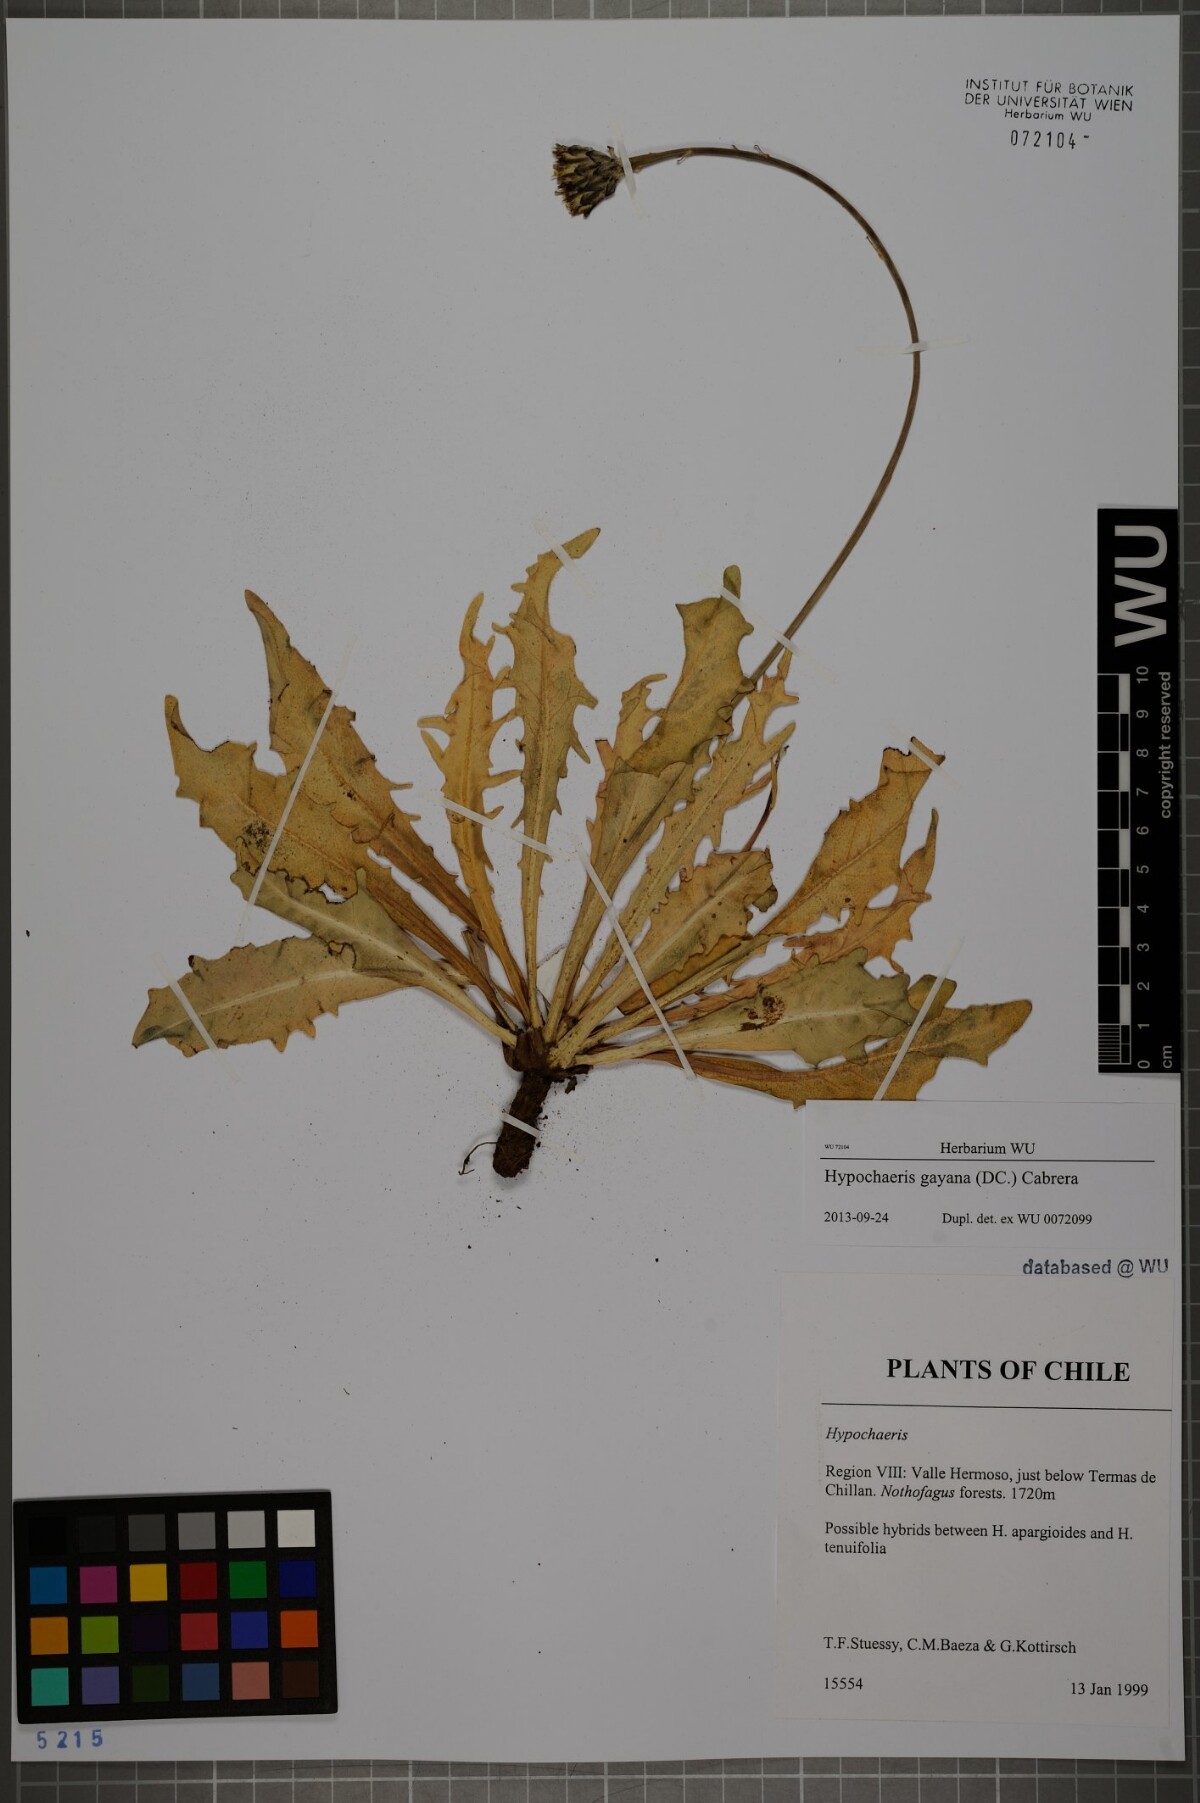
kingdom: Plantae
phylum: Tracheophyta
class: Magnoliopsida
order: Asterales
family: Asteraceae
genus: Hypochaeris
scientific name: Hypochaeris melanolepis
